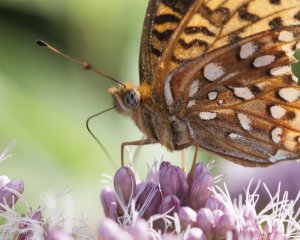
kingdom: Animalia
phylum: Arthropoda
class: Insecta
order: Lepidoptera
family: Nymphalidae
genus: Speyeria
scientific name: Speyeria atlantis
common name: Atlantis Fritillary
